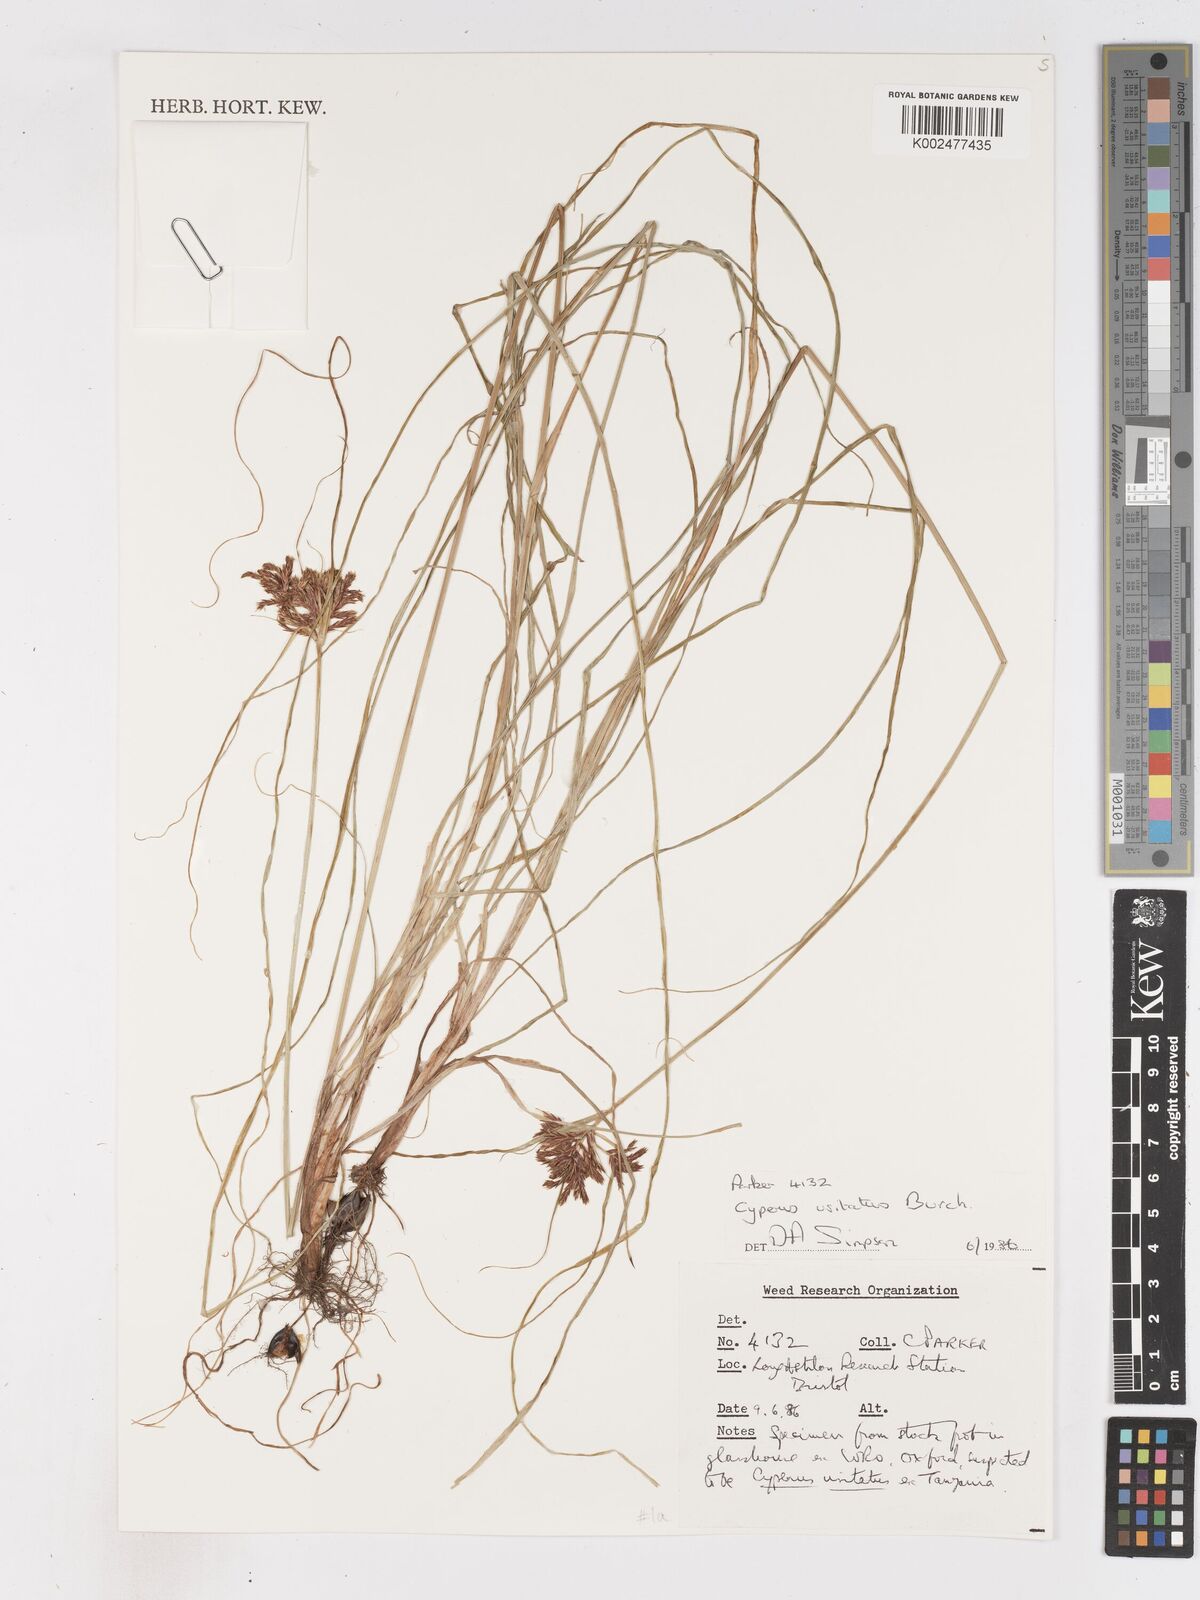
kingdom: Plantae
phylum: Tracheophyta
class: Liliopsida
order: Poales
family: Cyperaceae
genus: Cyperus
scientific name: Cyperus
